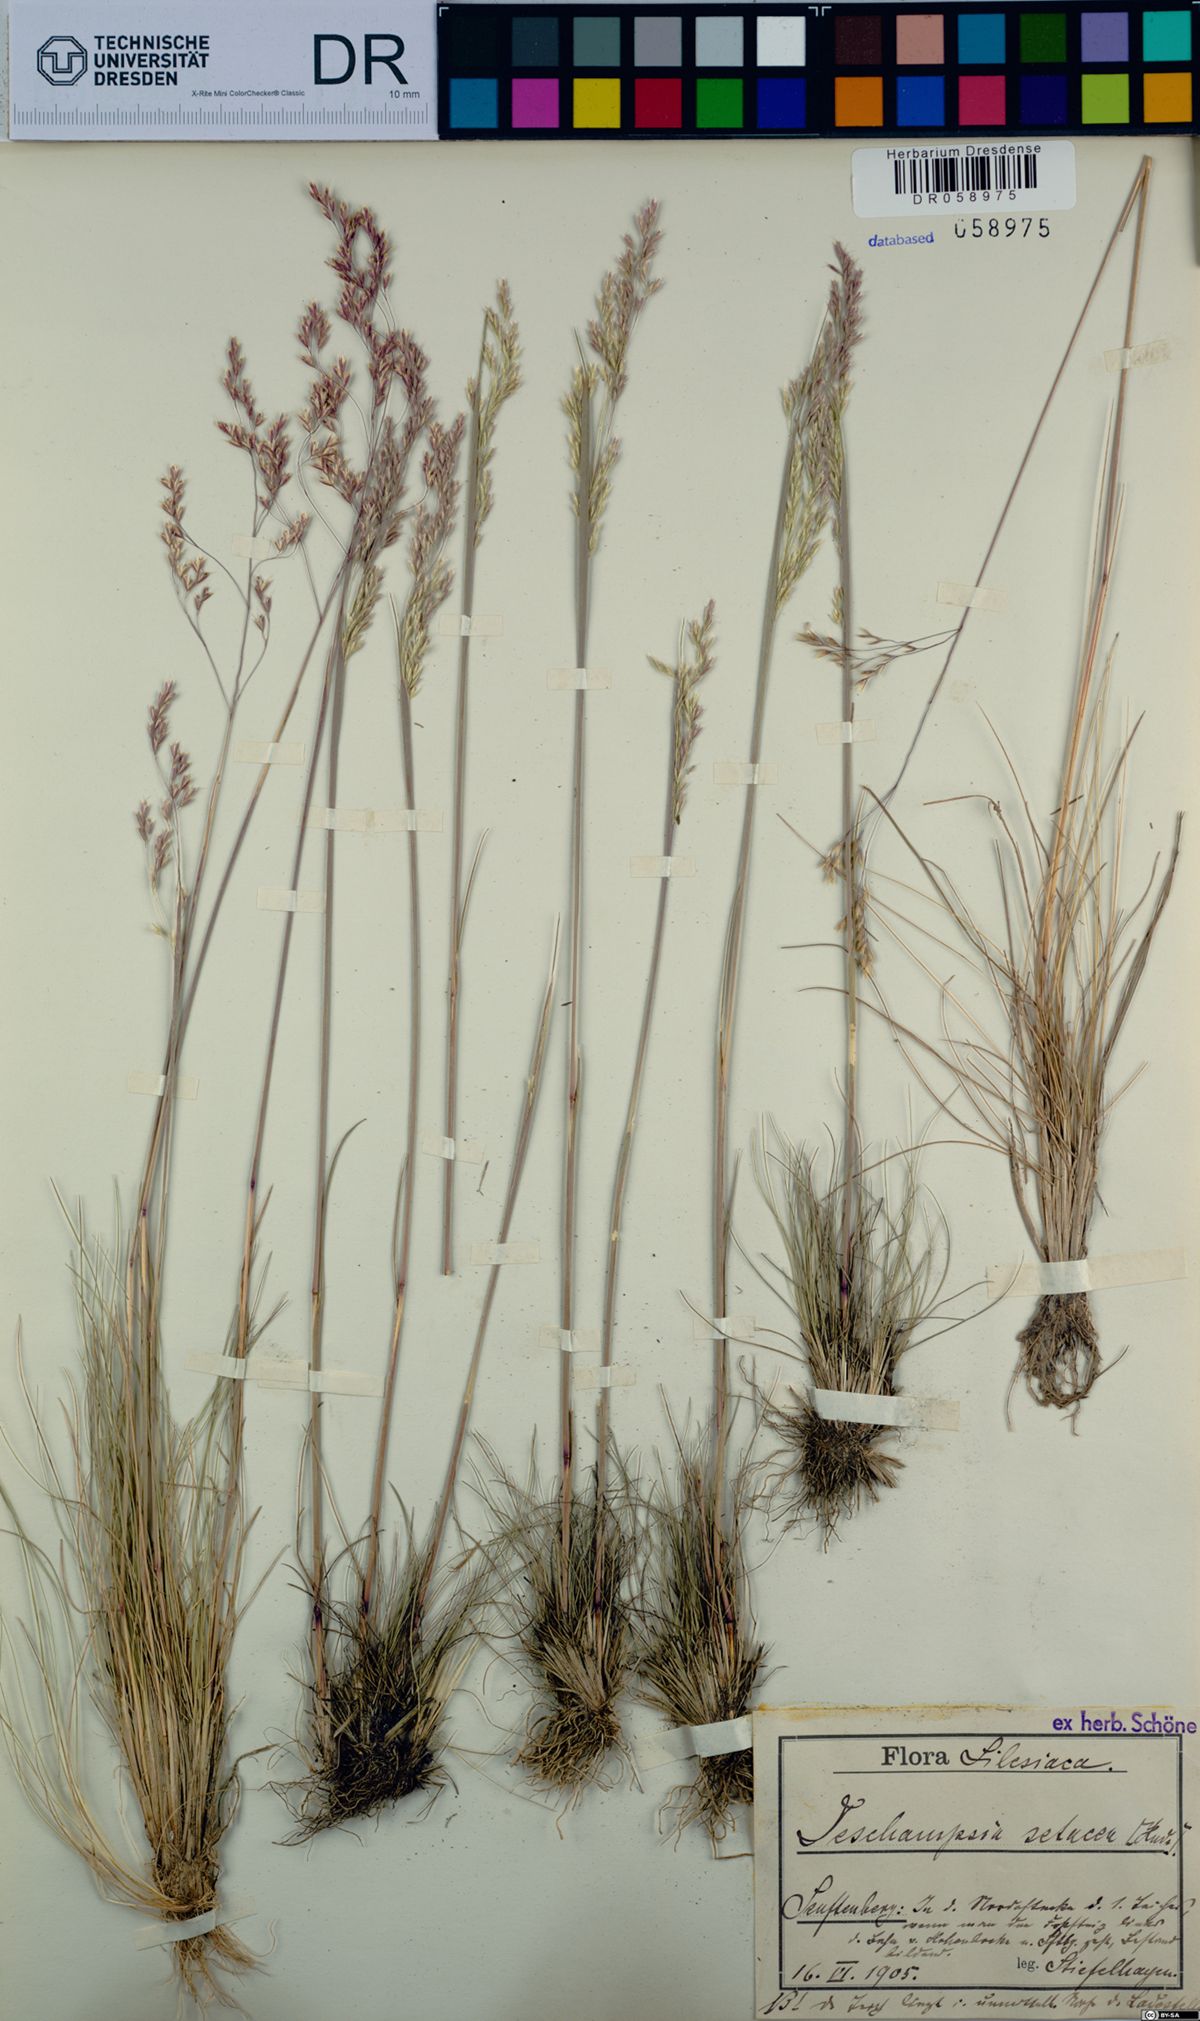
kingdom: Plantae
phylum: Tracheophyta
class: Liliopsida
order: Poales
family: Poaceae
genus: Deschampsia
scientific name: Deschampsia setacea
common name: Bog hair-grass
